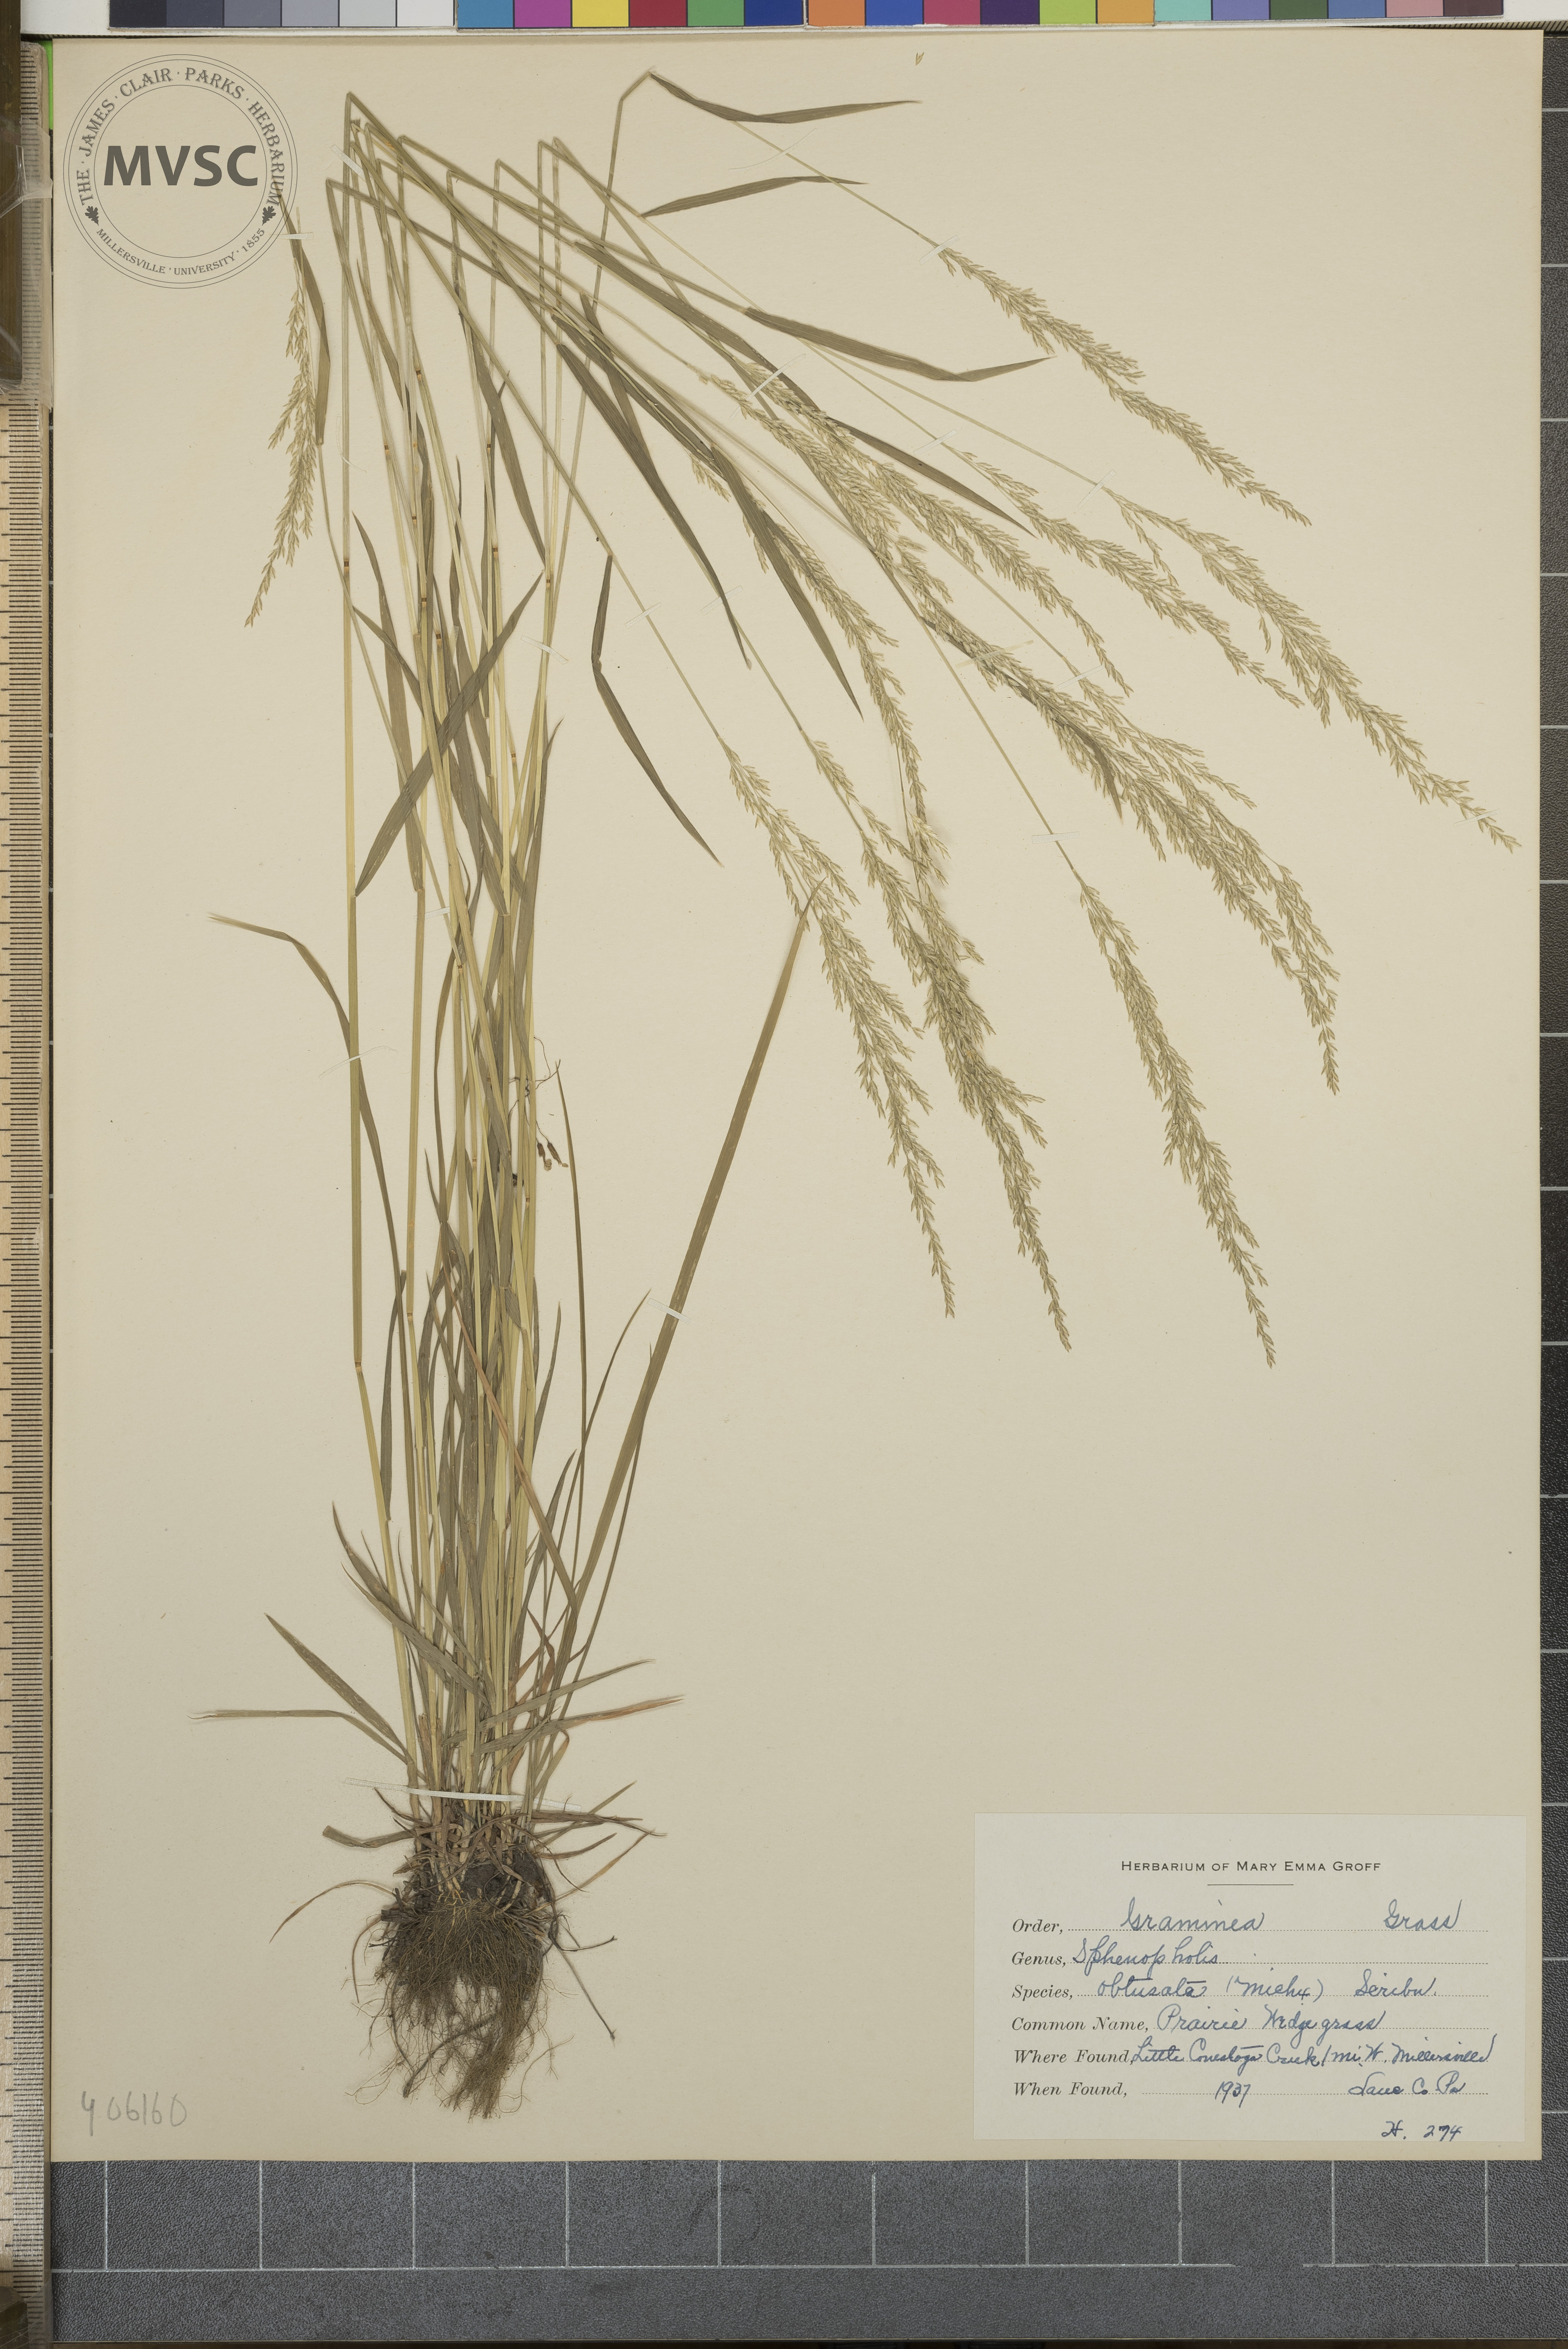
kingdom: Plantae
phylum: Tracheophyta
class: Liliopsida
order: Poales
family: Poaceae
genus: Sphenopholis
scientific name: Sphenopholis obtusata
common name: Prairie Wedge grass
